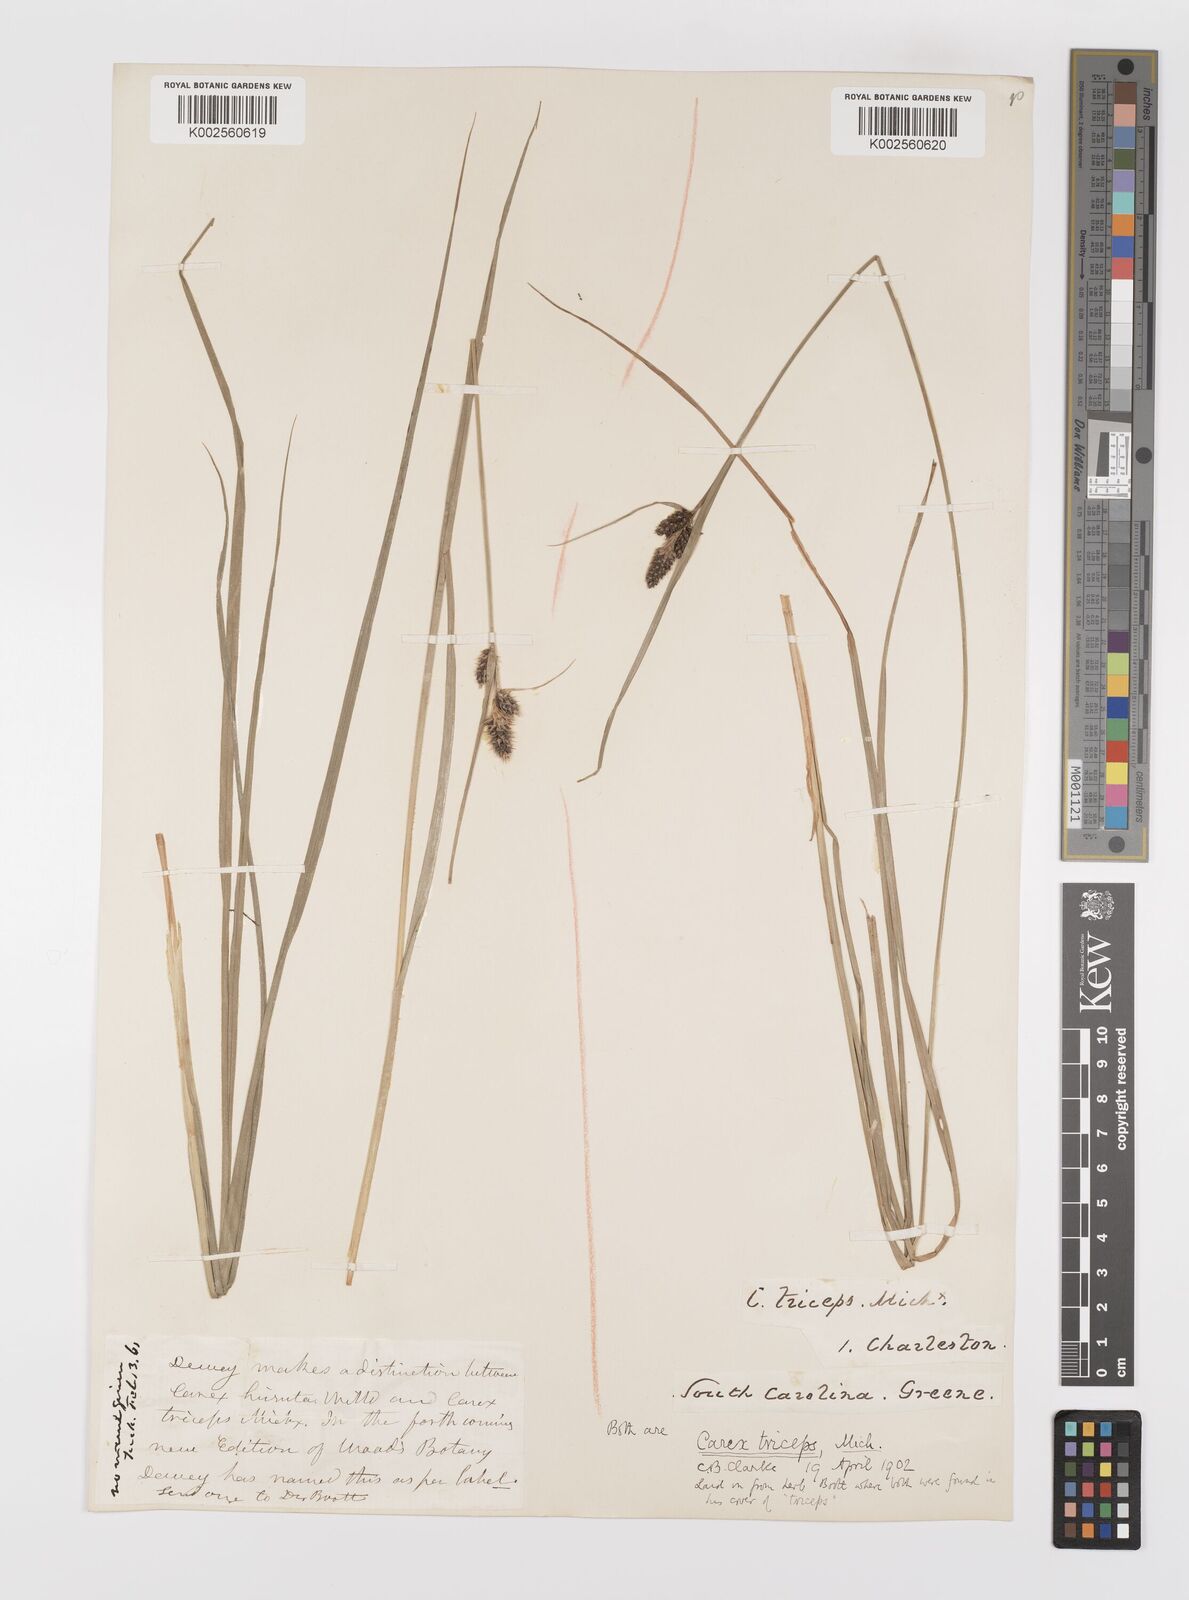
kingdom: Plantae
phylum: Tracheophyta
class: Liliopsida
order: Poales
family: Cyperaceae
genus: Carex
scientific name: Carex complanata
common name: Hirsute sedge
